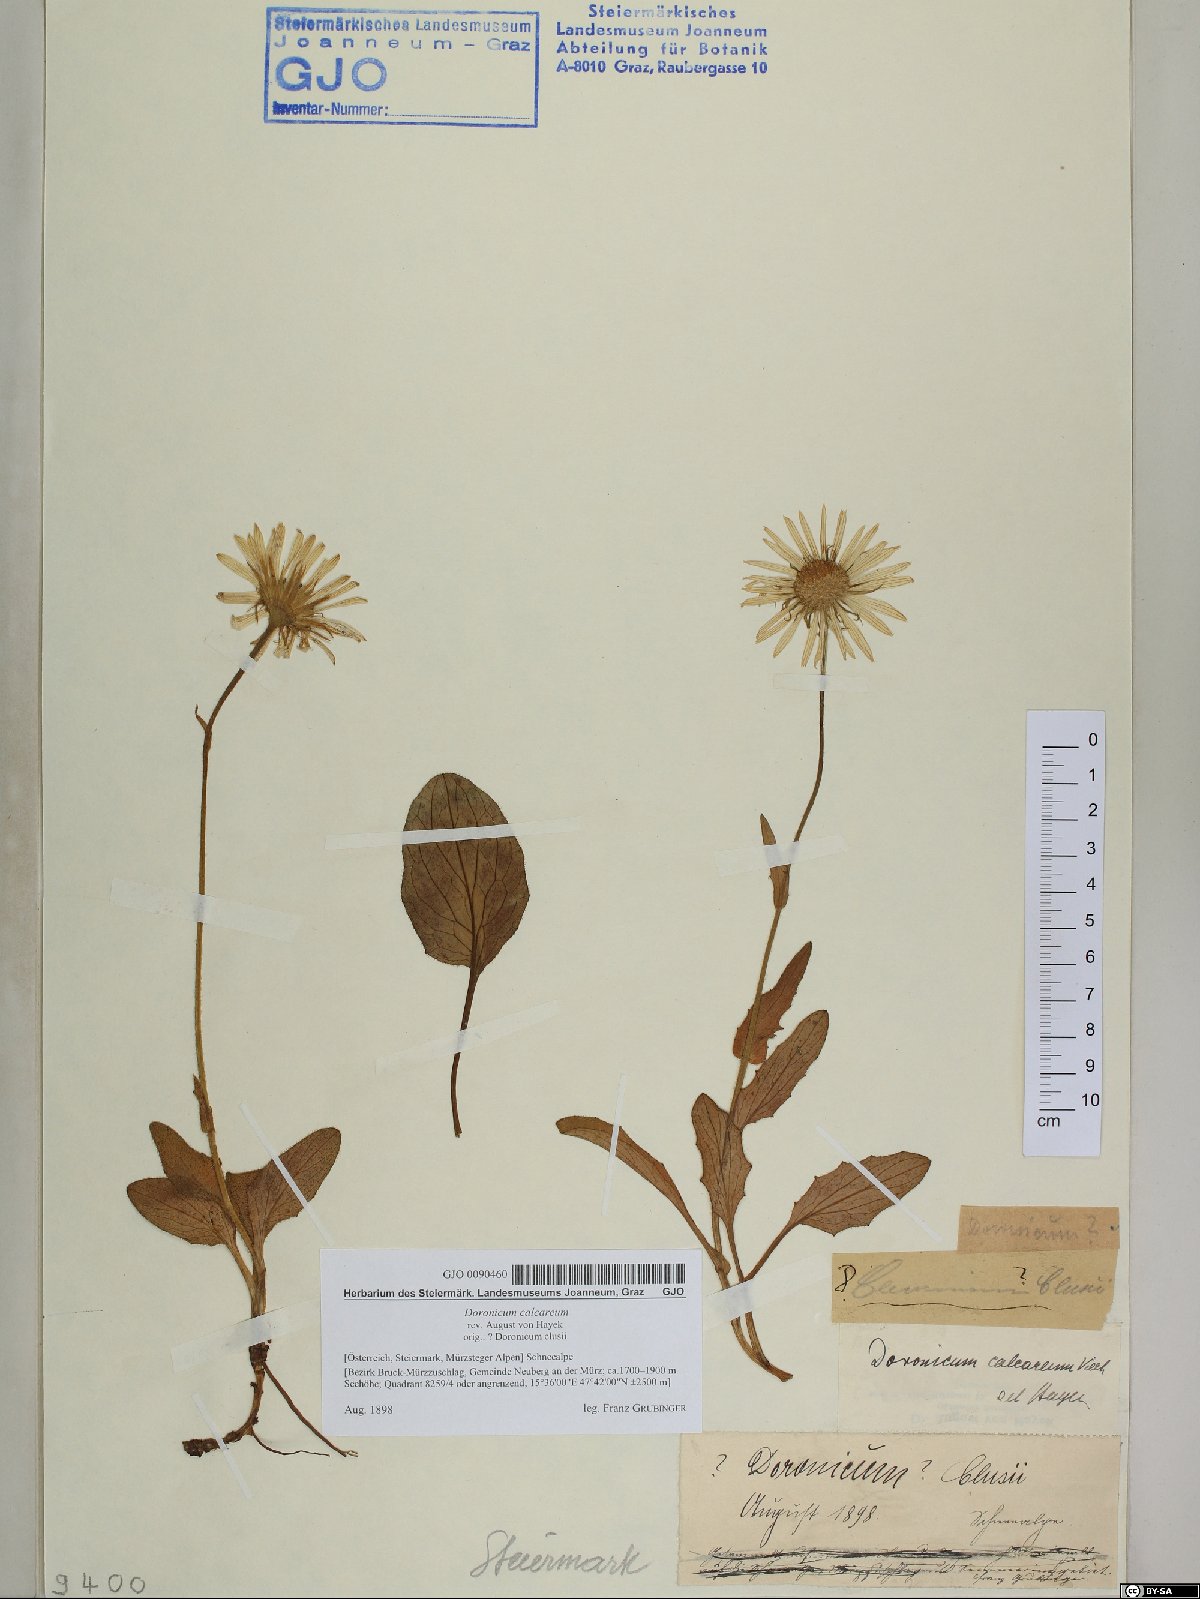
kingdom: Plantae
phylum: Tracheophyta
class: Magnoliopsida
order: Asterales
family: Asteraceae
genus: Doronicum
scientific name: Doronicum glaciale
